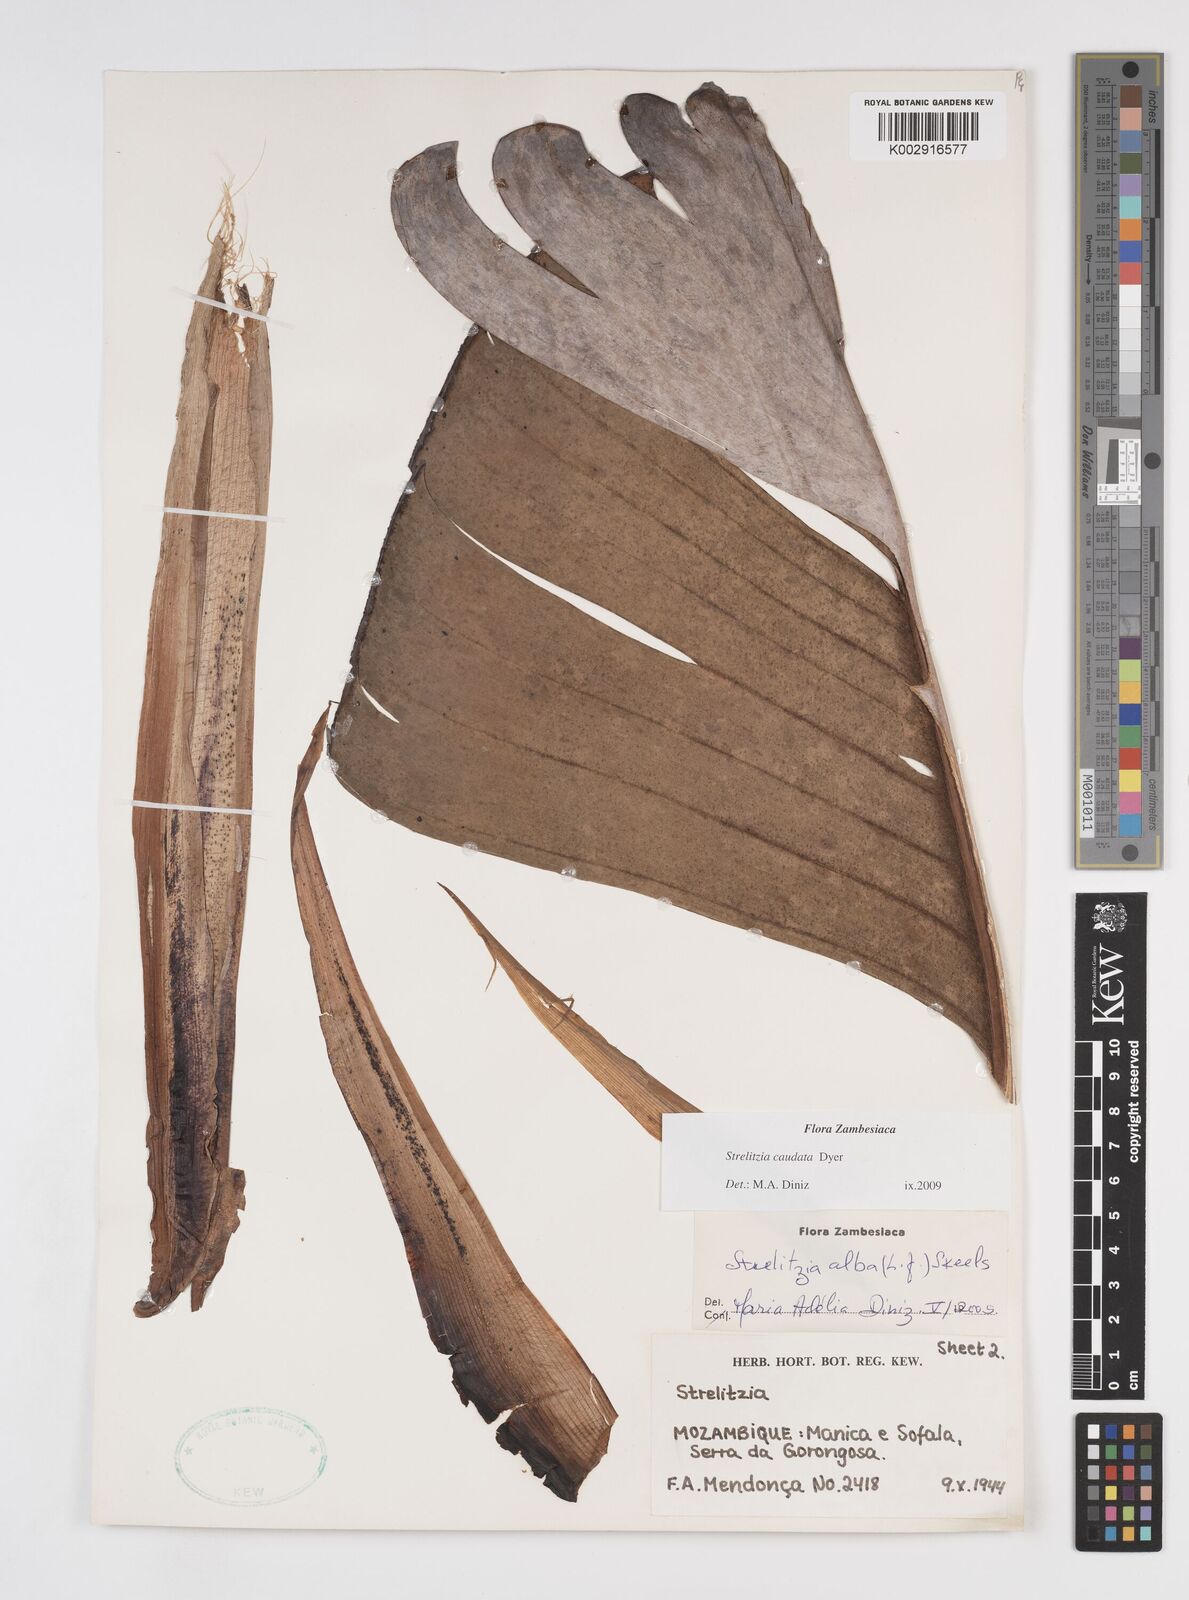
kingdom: Plantae
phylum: Tracheophyta
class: Liliopsida
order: Zingiberales
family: Strelitziaceae
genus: Strelitzia
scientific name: Strelitzia caudata
